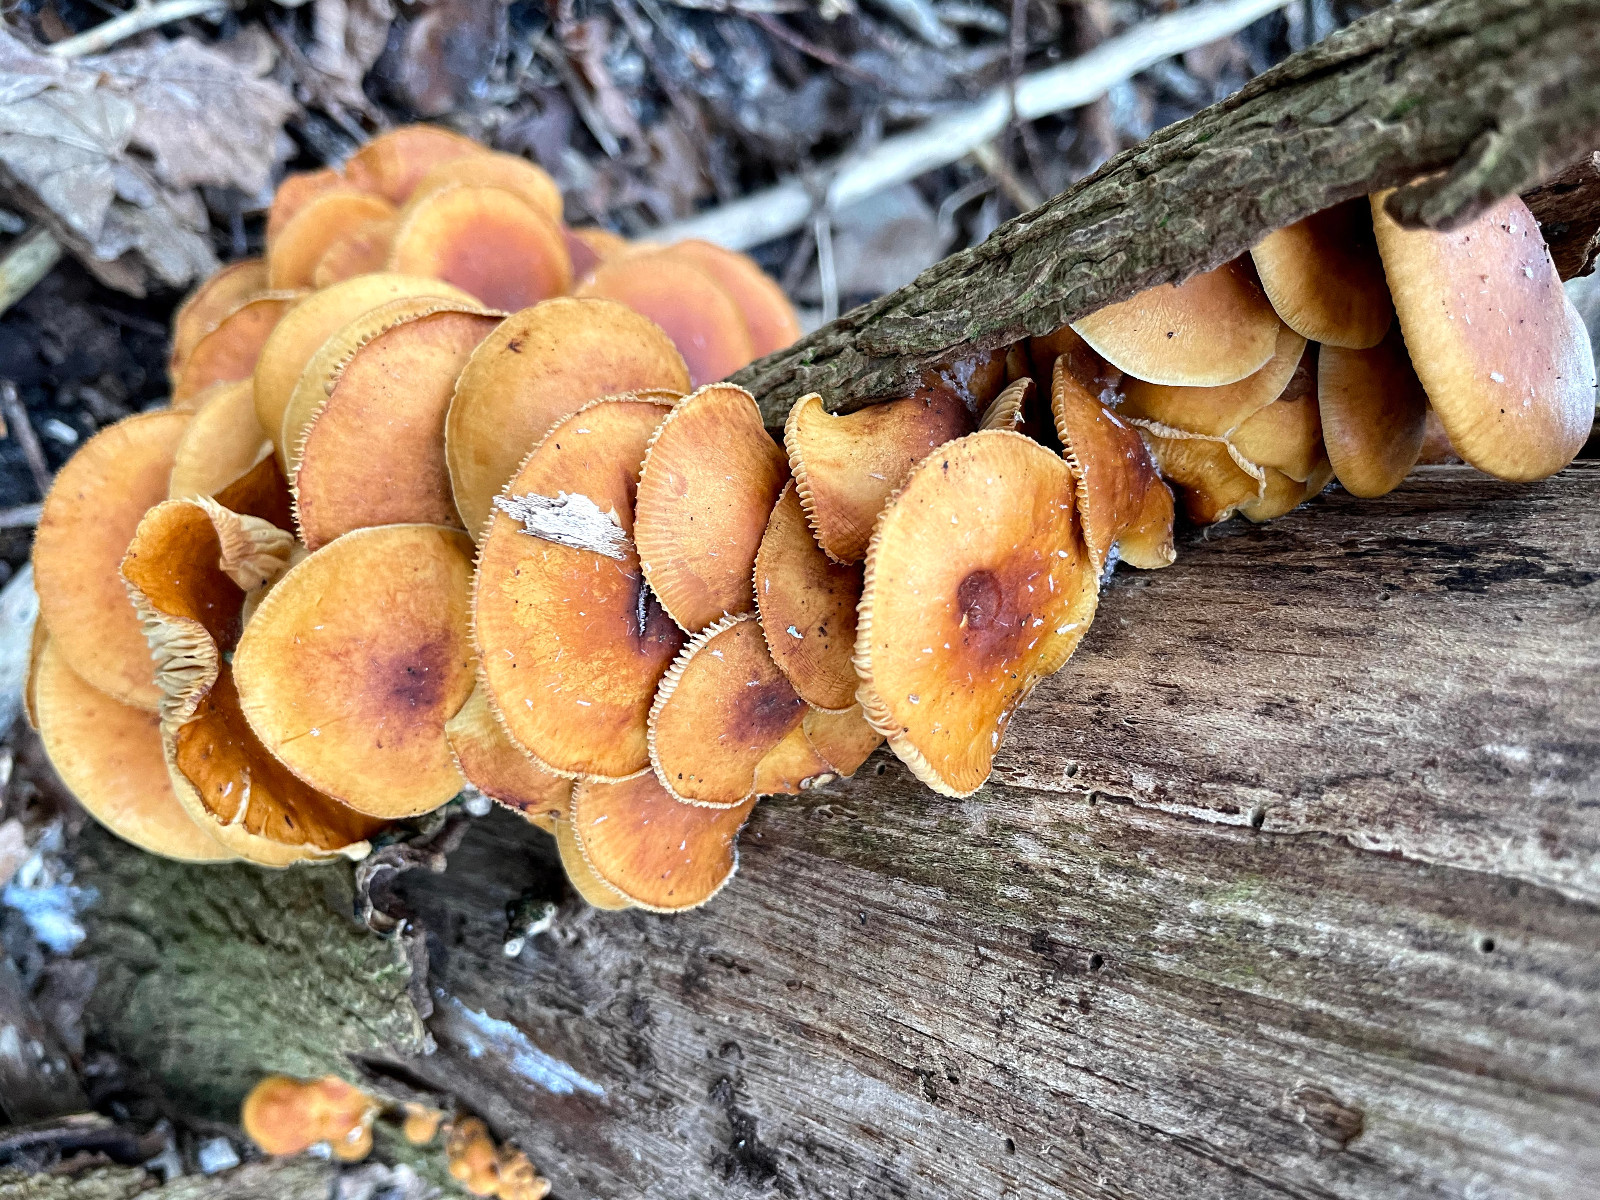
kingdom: Fungi
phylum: Basidiomycota
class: Agaricomycetes
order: Agaricales
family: Physalacriaceae
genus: Flammulina
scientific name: Flammulina velutipes
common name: gul fløjlsfod
